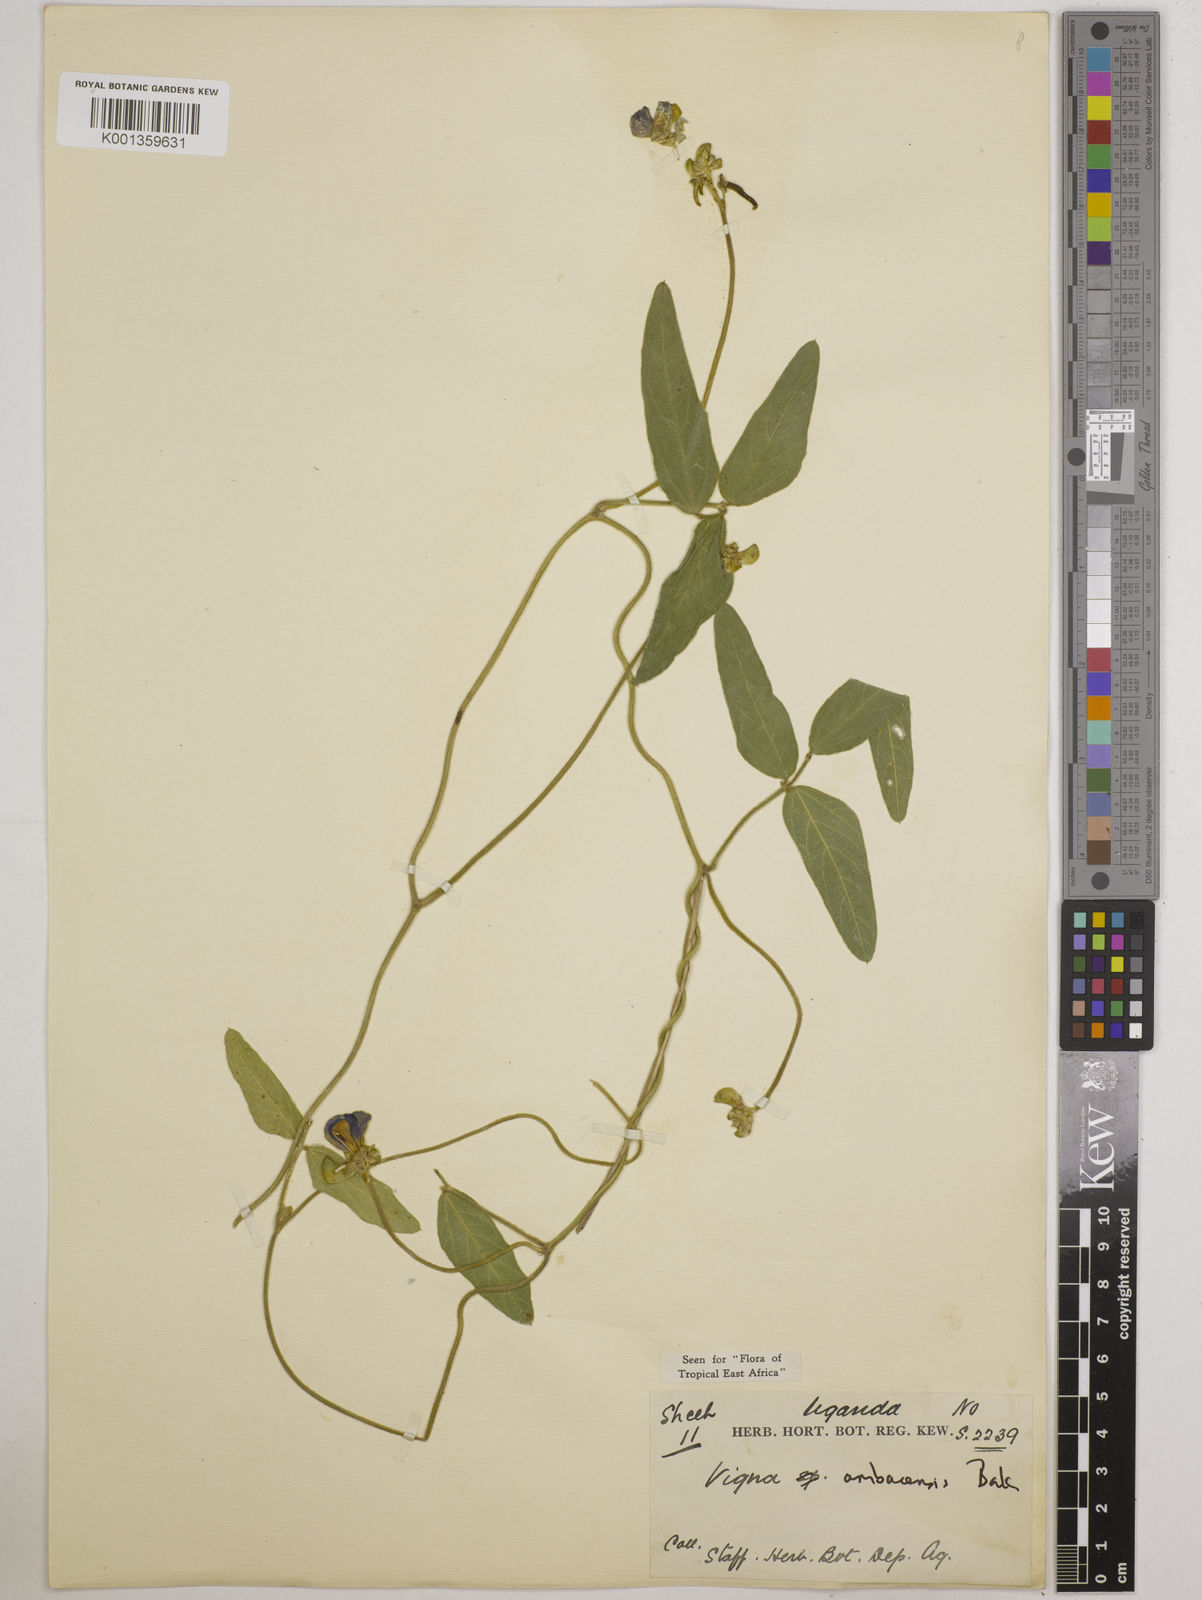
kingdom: Plantae
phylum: Tracheophyta
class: Magnoliopsida
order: Fabales
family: Fabaceae
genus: Vigna
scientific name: Vigna ambacensis
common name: Tsarkiyan zomo
